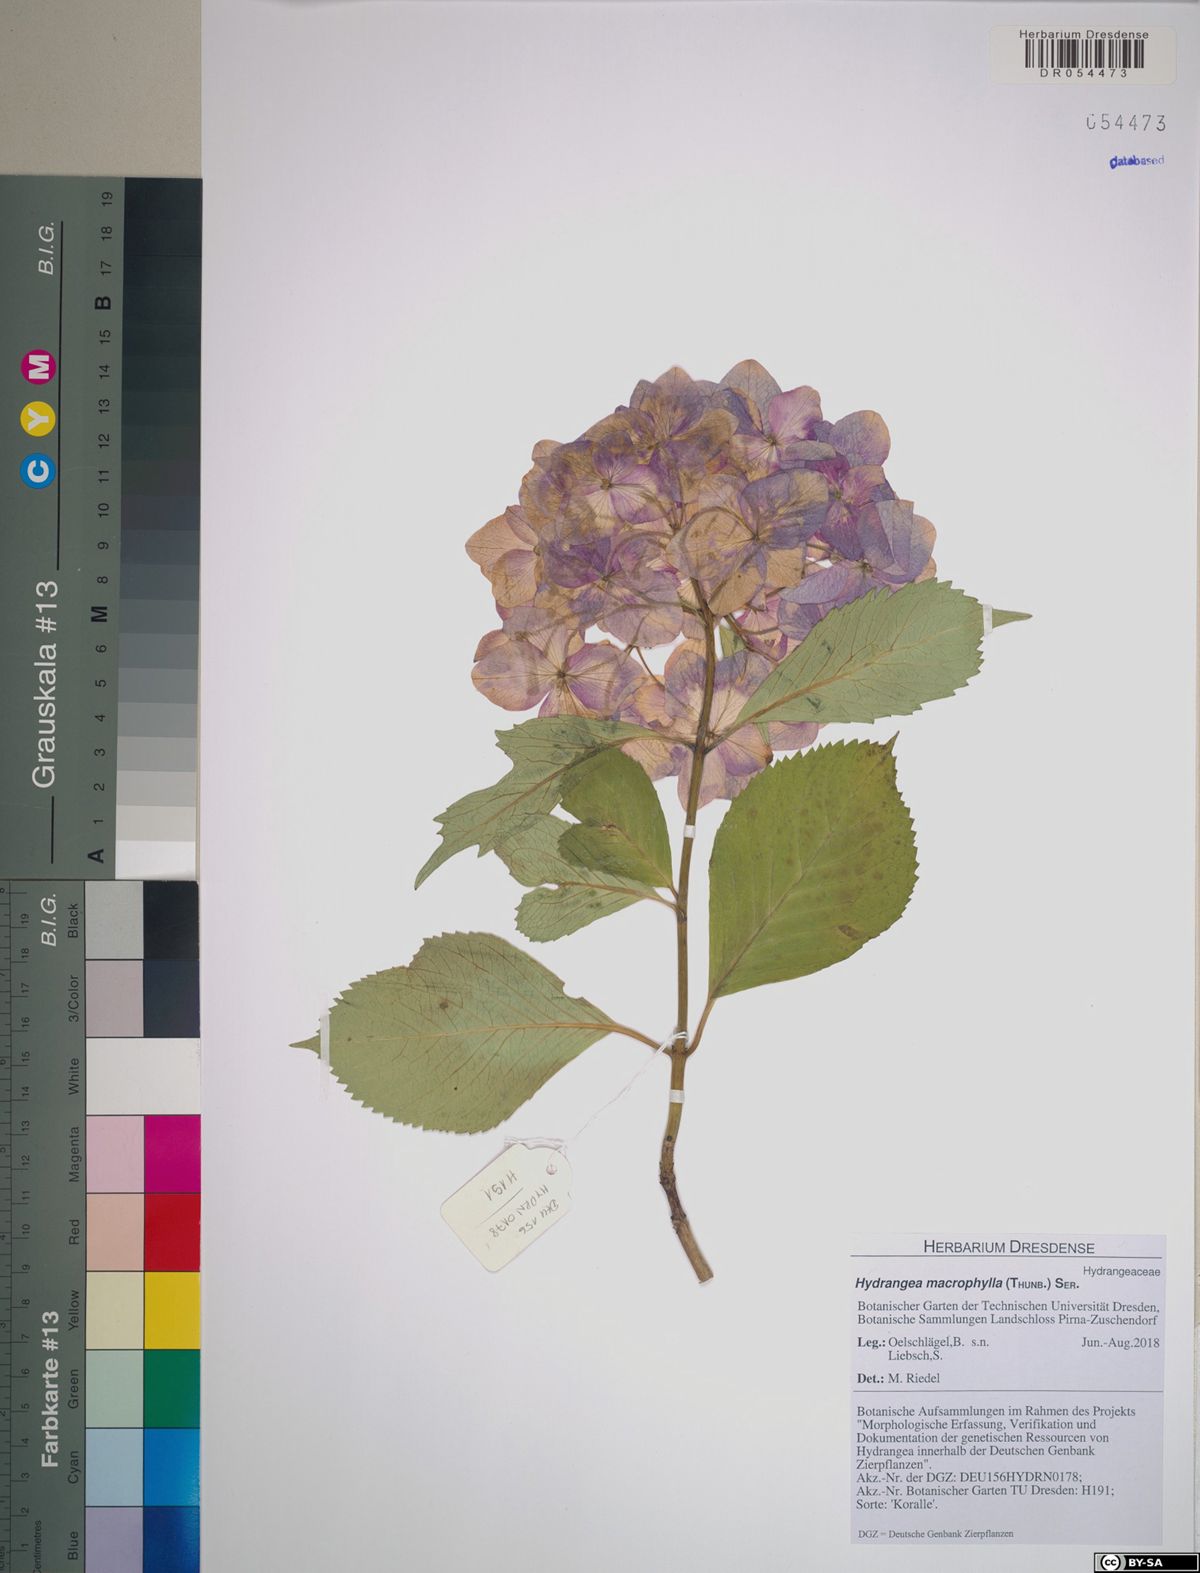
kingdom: Plantae
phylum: Tracheophyta
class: Magnoliopsida
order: Cornales
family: Hydrangeaceae
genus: Hydrangea
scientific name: Hydrangea macrophylla
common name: Hydrangea
